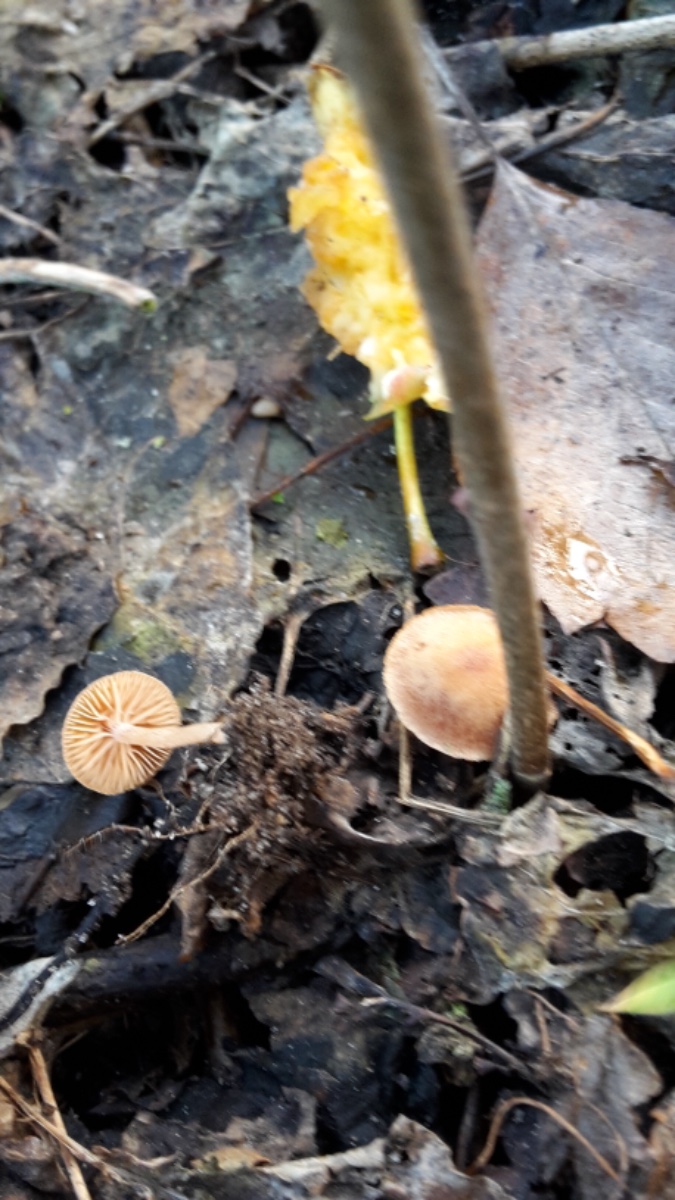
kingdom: Fungi
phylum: Basidiomycota
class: Agaricomycetes
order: Agaricales
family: Tubariaceae
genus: Tubaria
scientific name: Tubaria furfuracea
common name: kliddet fnughat
